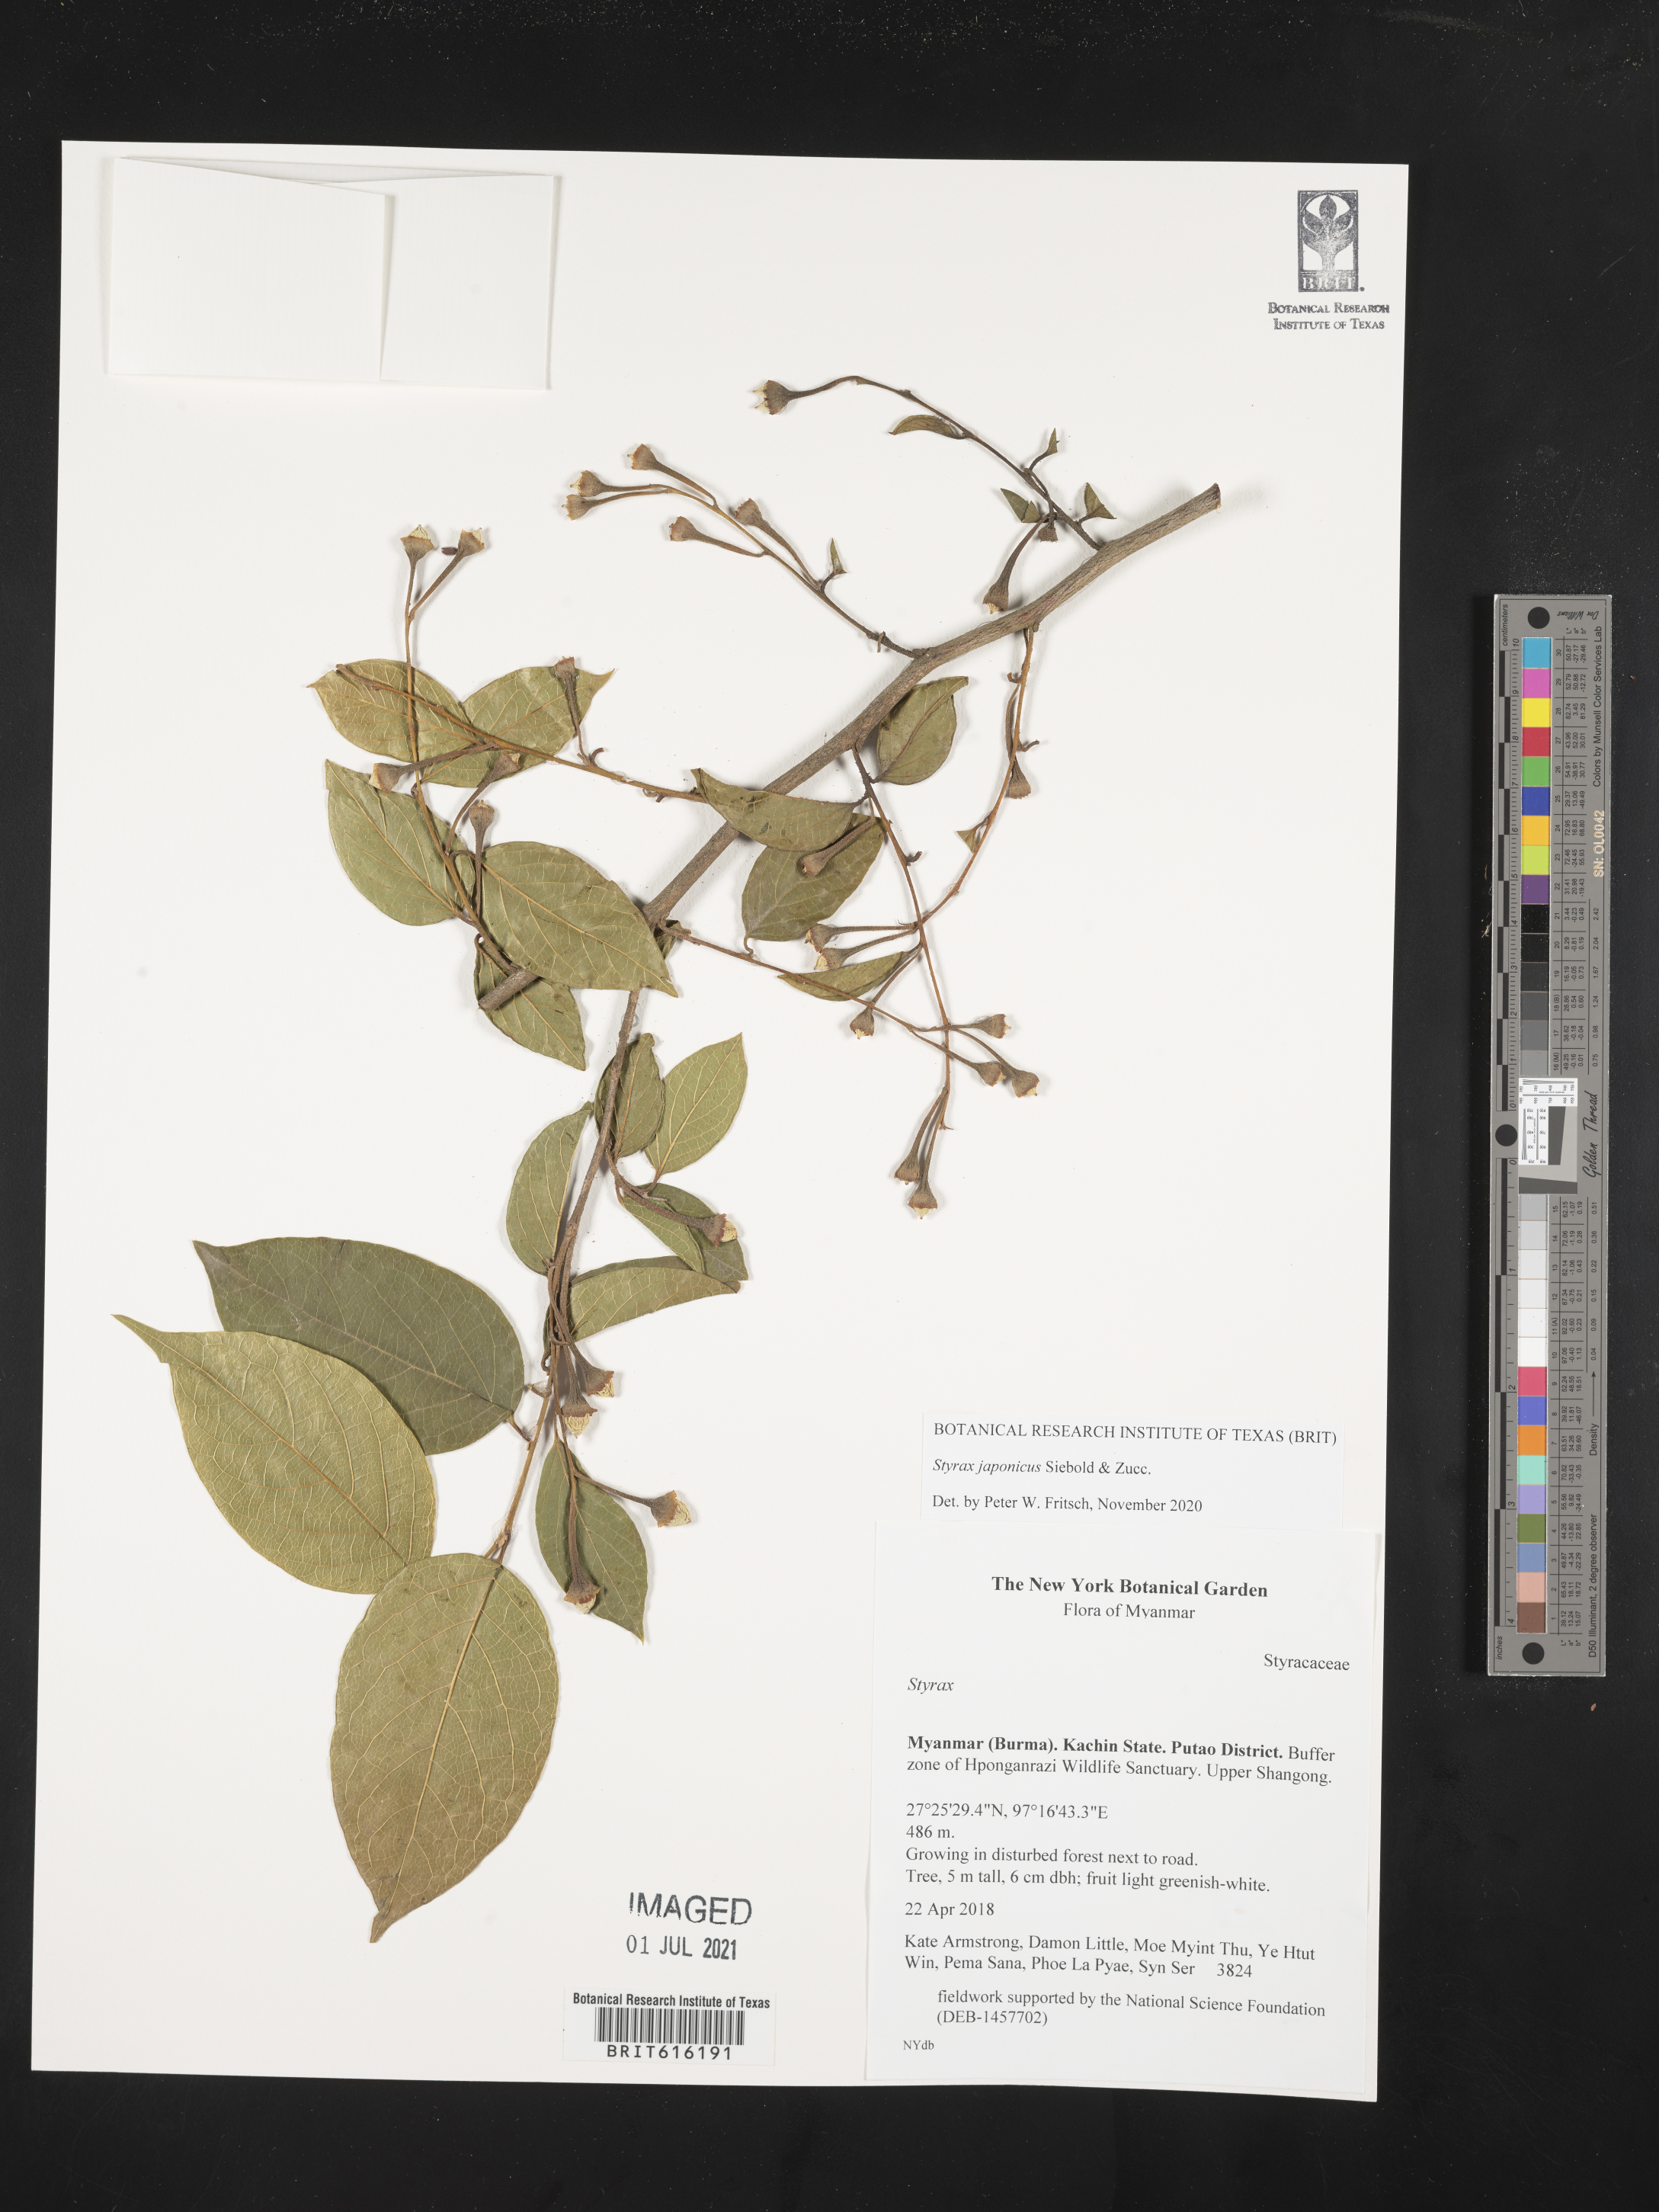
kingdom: Plantae
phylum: Tracheophyta
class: Magnoliopsida
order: Ericales
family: Styracaceae
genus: Styrax
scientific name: Styrax japonicus
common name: Japanese snowbell
